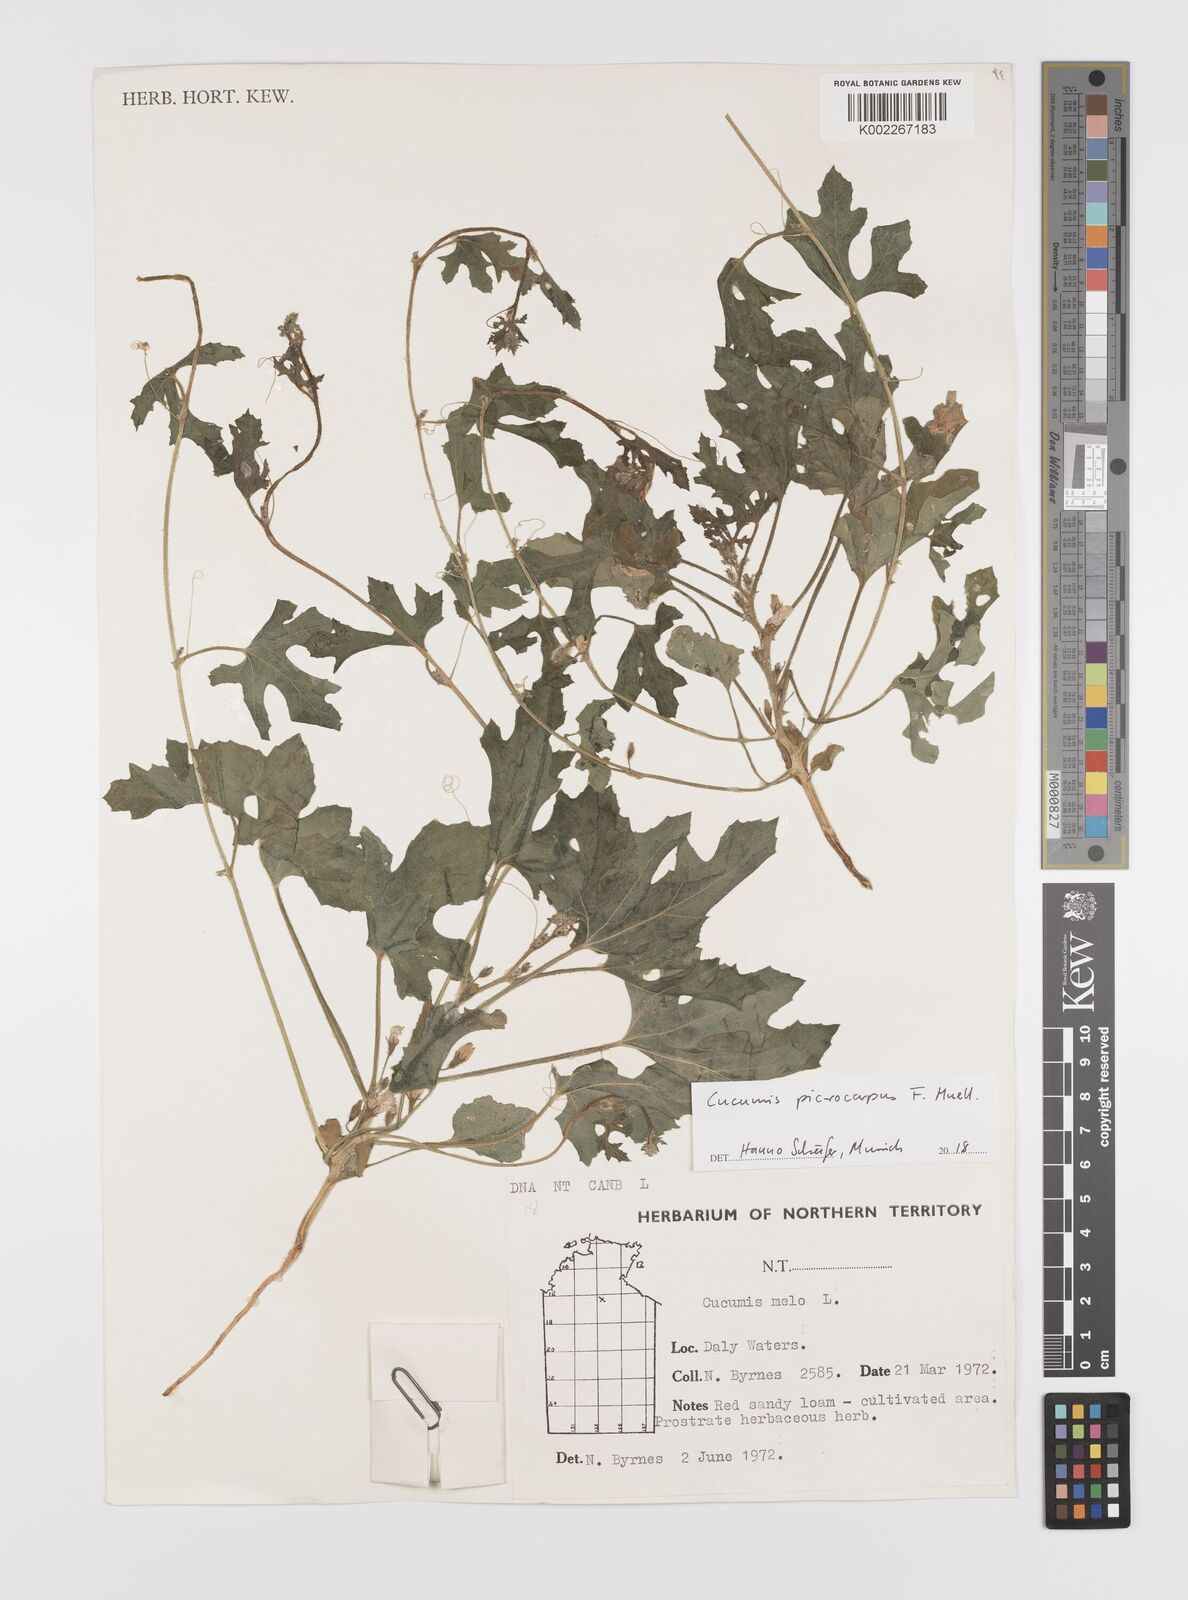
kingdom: Plantae
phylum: Tracheophyta
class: Magnoliopsida
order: Cucurbitales
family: Cucurbitaceae
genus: Cucumis
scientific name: Cucumis melo
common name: Melon
